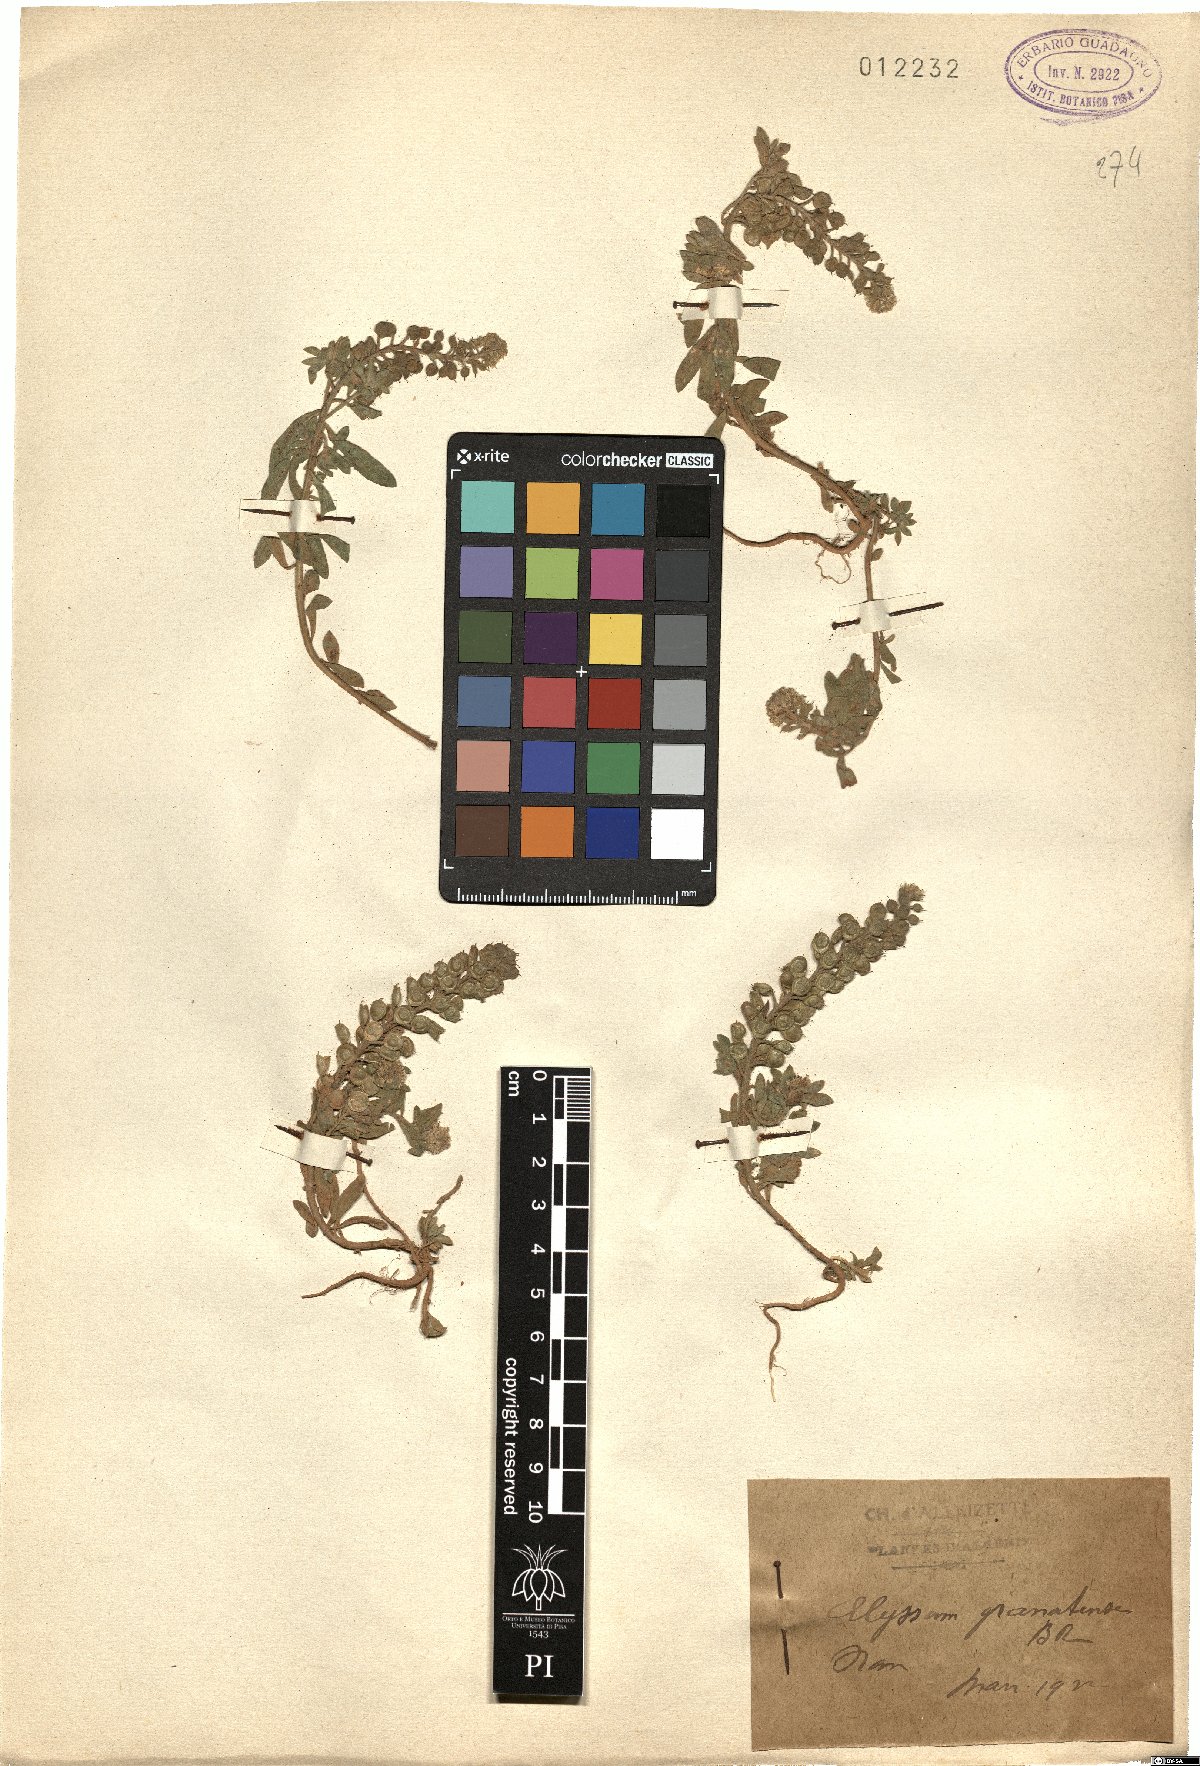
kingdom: Plantae
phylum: Tracheophyta
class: Magnoliopsida
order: Brassicales
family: Brassicaceae
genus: Alyssum
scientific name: Alyssum granatense
